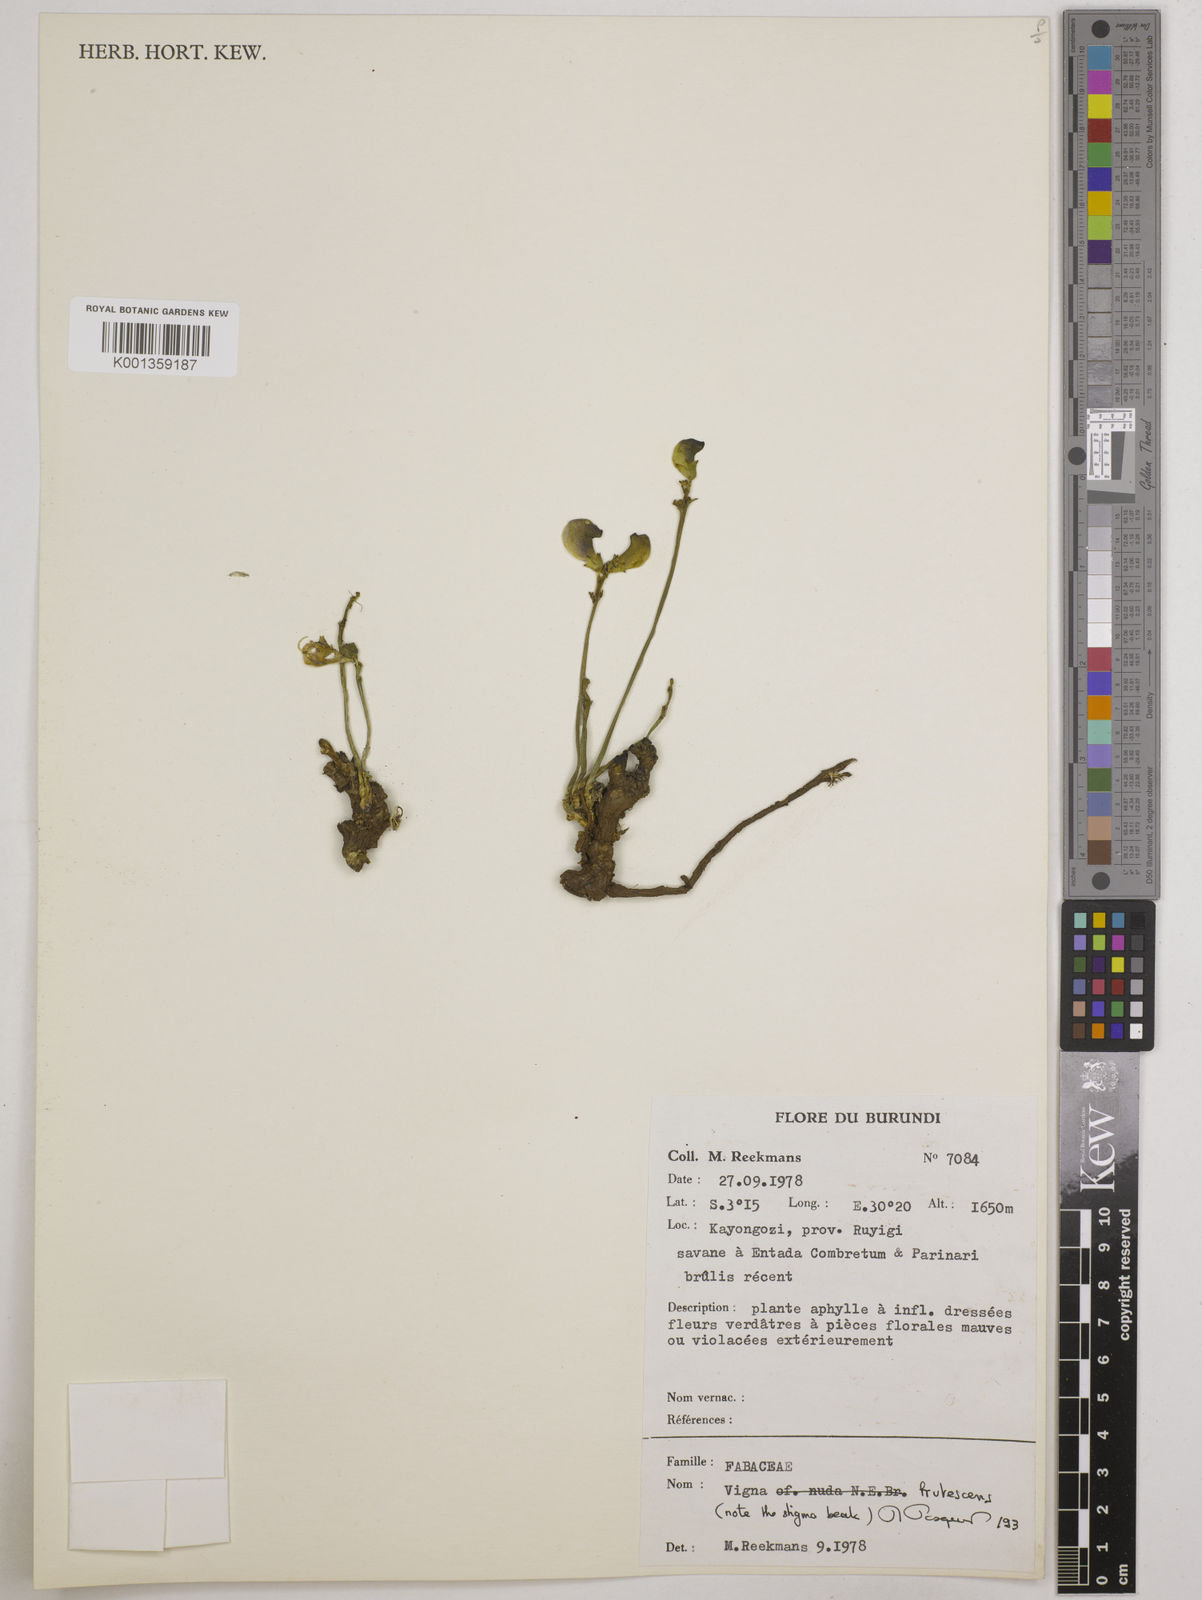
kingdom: Plantae
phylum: Tracheophyta
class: Magnoliopsida
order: Fabales
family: Fabaceae
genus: Vigna
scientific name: Vigna frutescens
